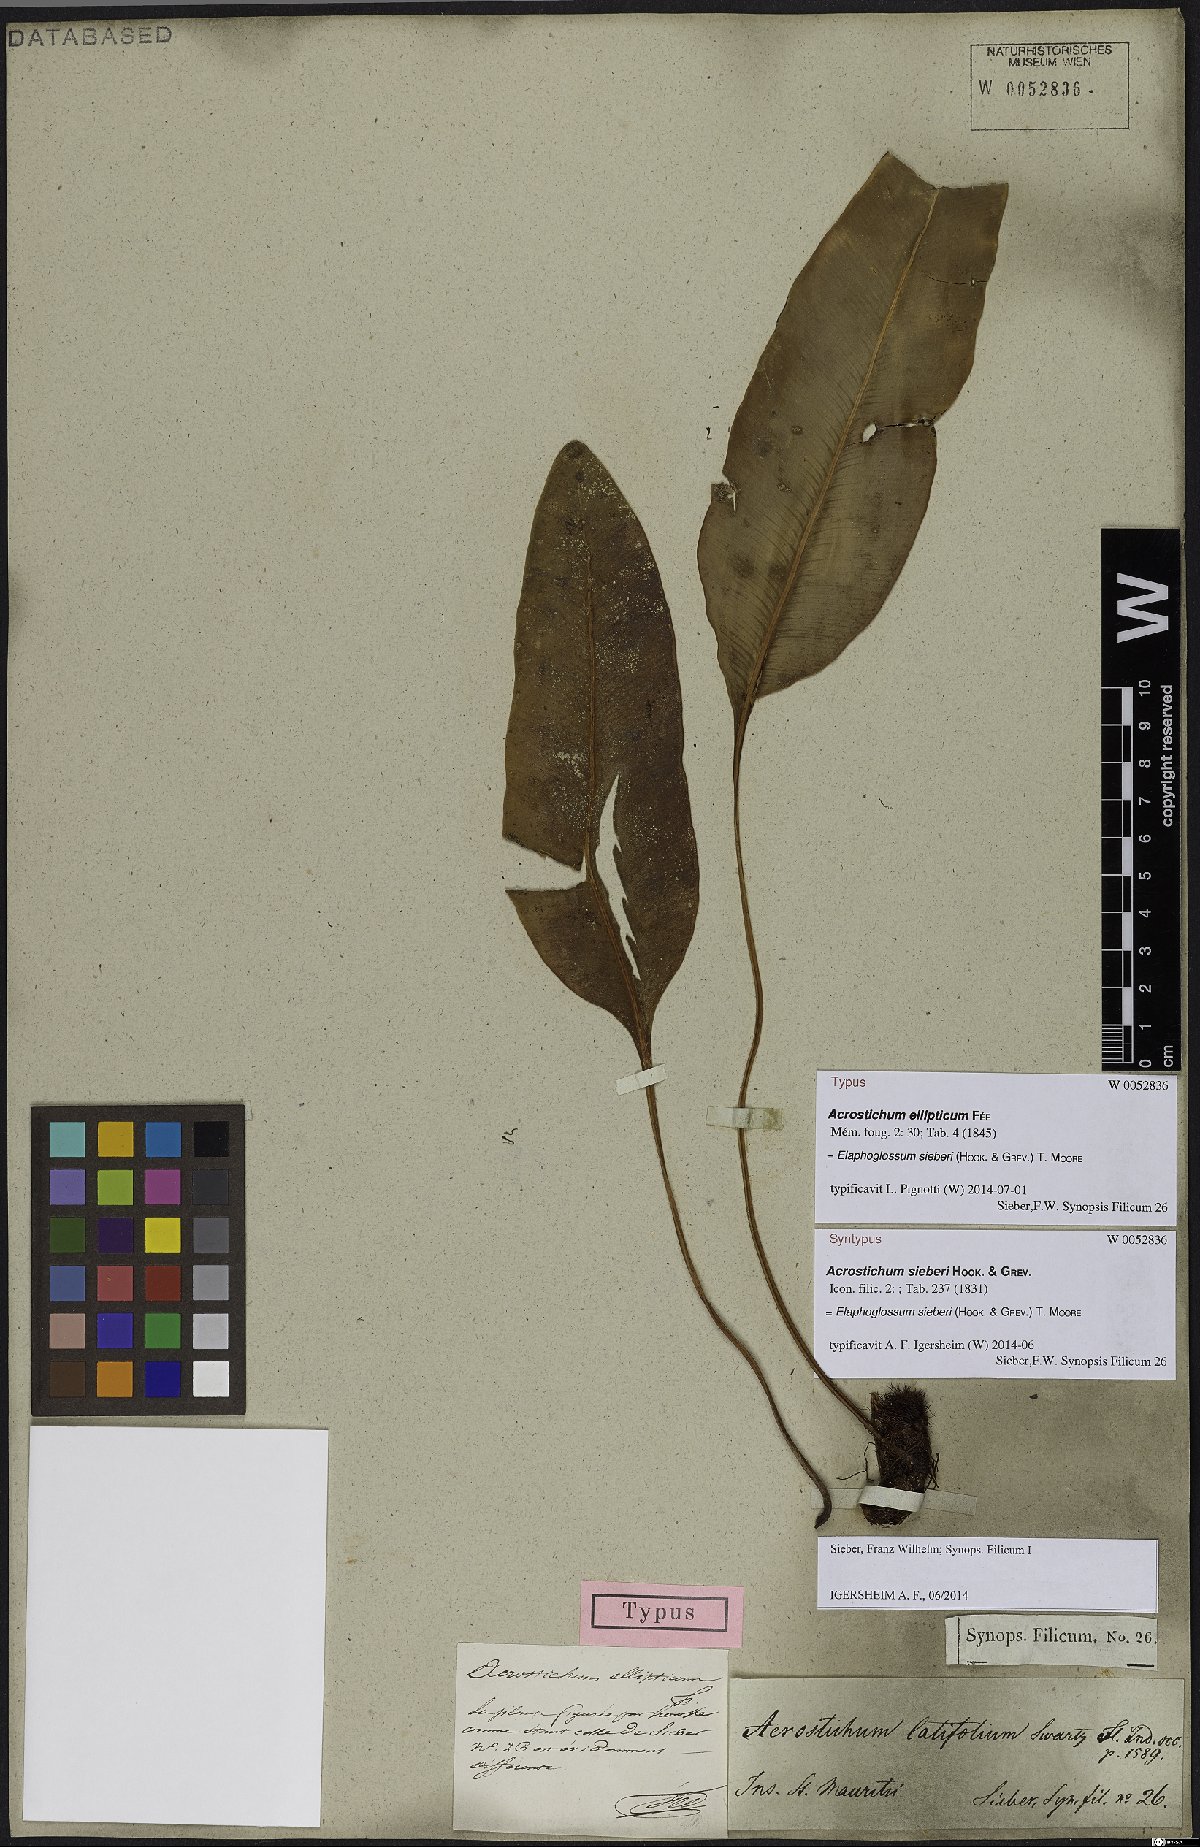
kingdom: Plantae
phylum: Tracheophyta
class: Polypodiopsida
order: Polypodiales
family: Dryopteridaceae
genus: Elaphoglossum
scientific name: Elaphoglossum sieberi
